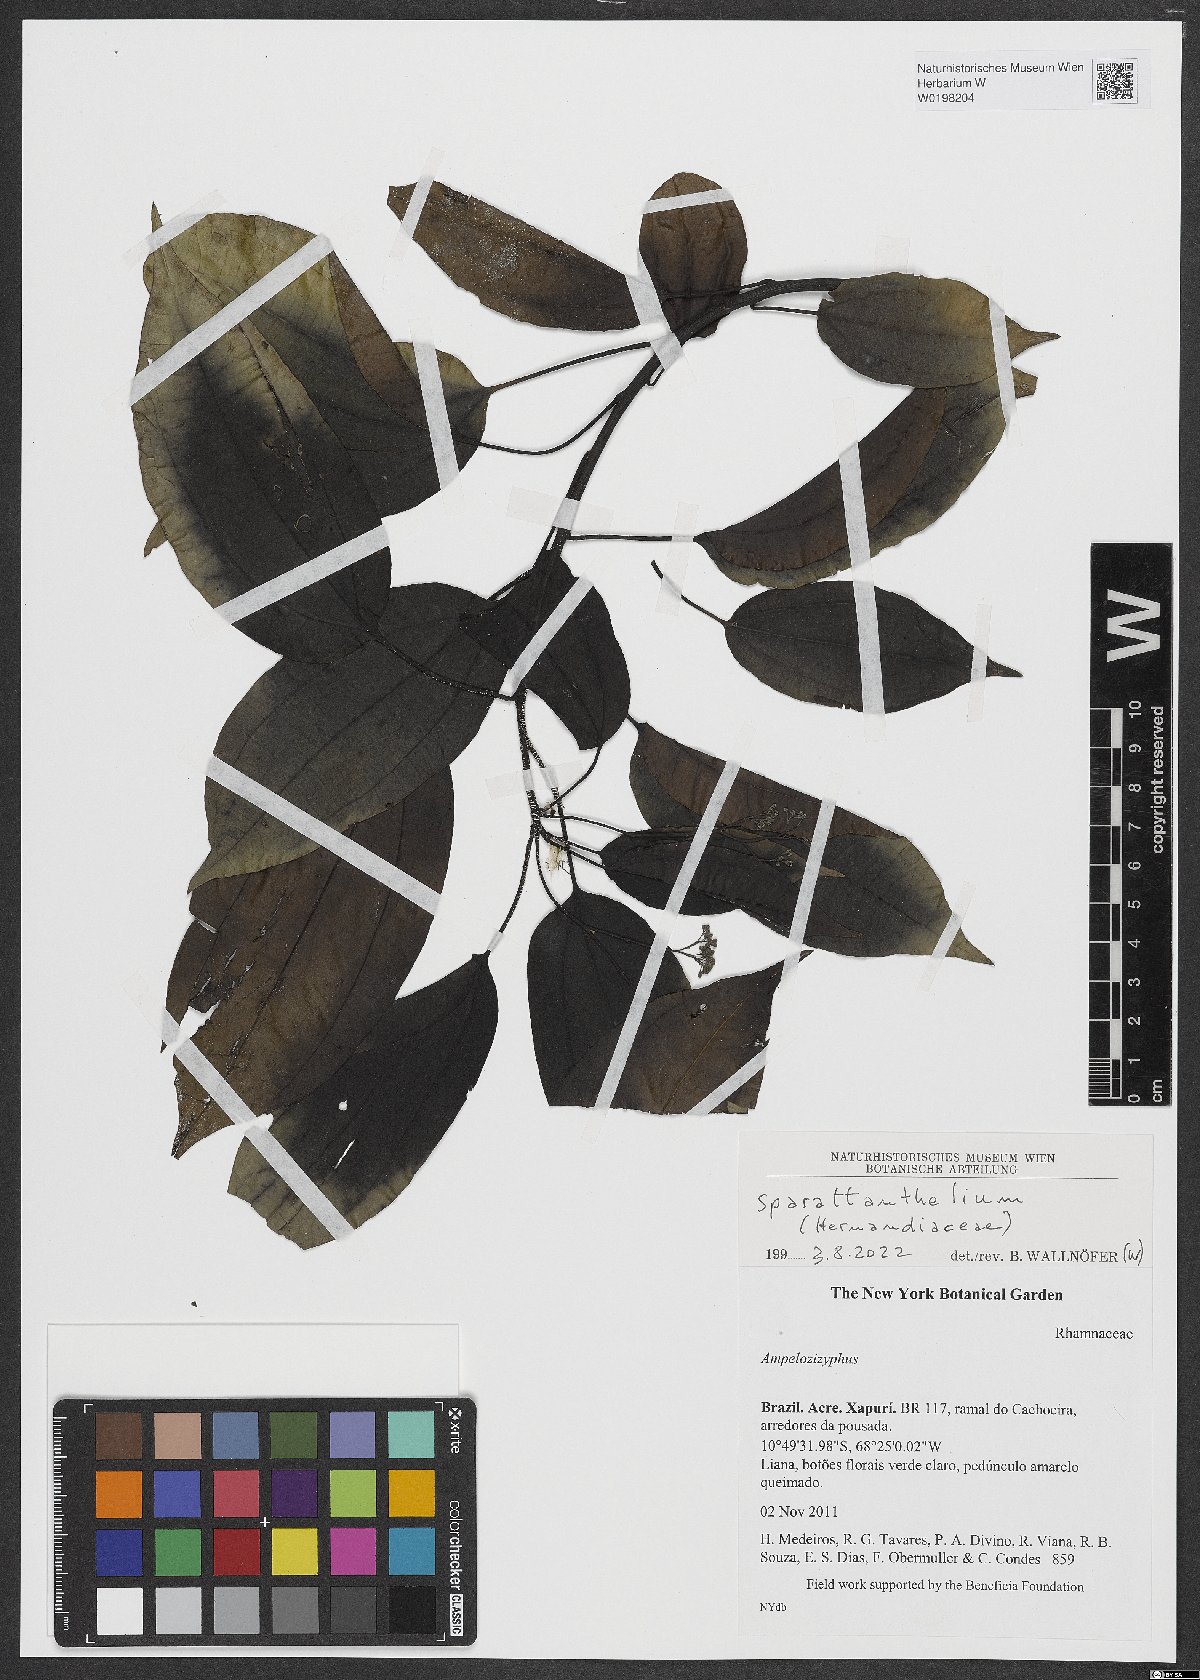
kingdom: Plantae
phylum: Tracheophyta
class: Magnoliopsida
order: Laurales
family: Hernandiaceae
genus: Sparattanthelium
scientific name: Sparattanthelium
